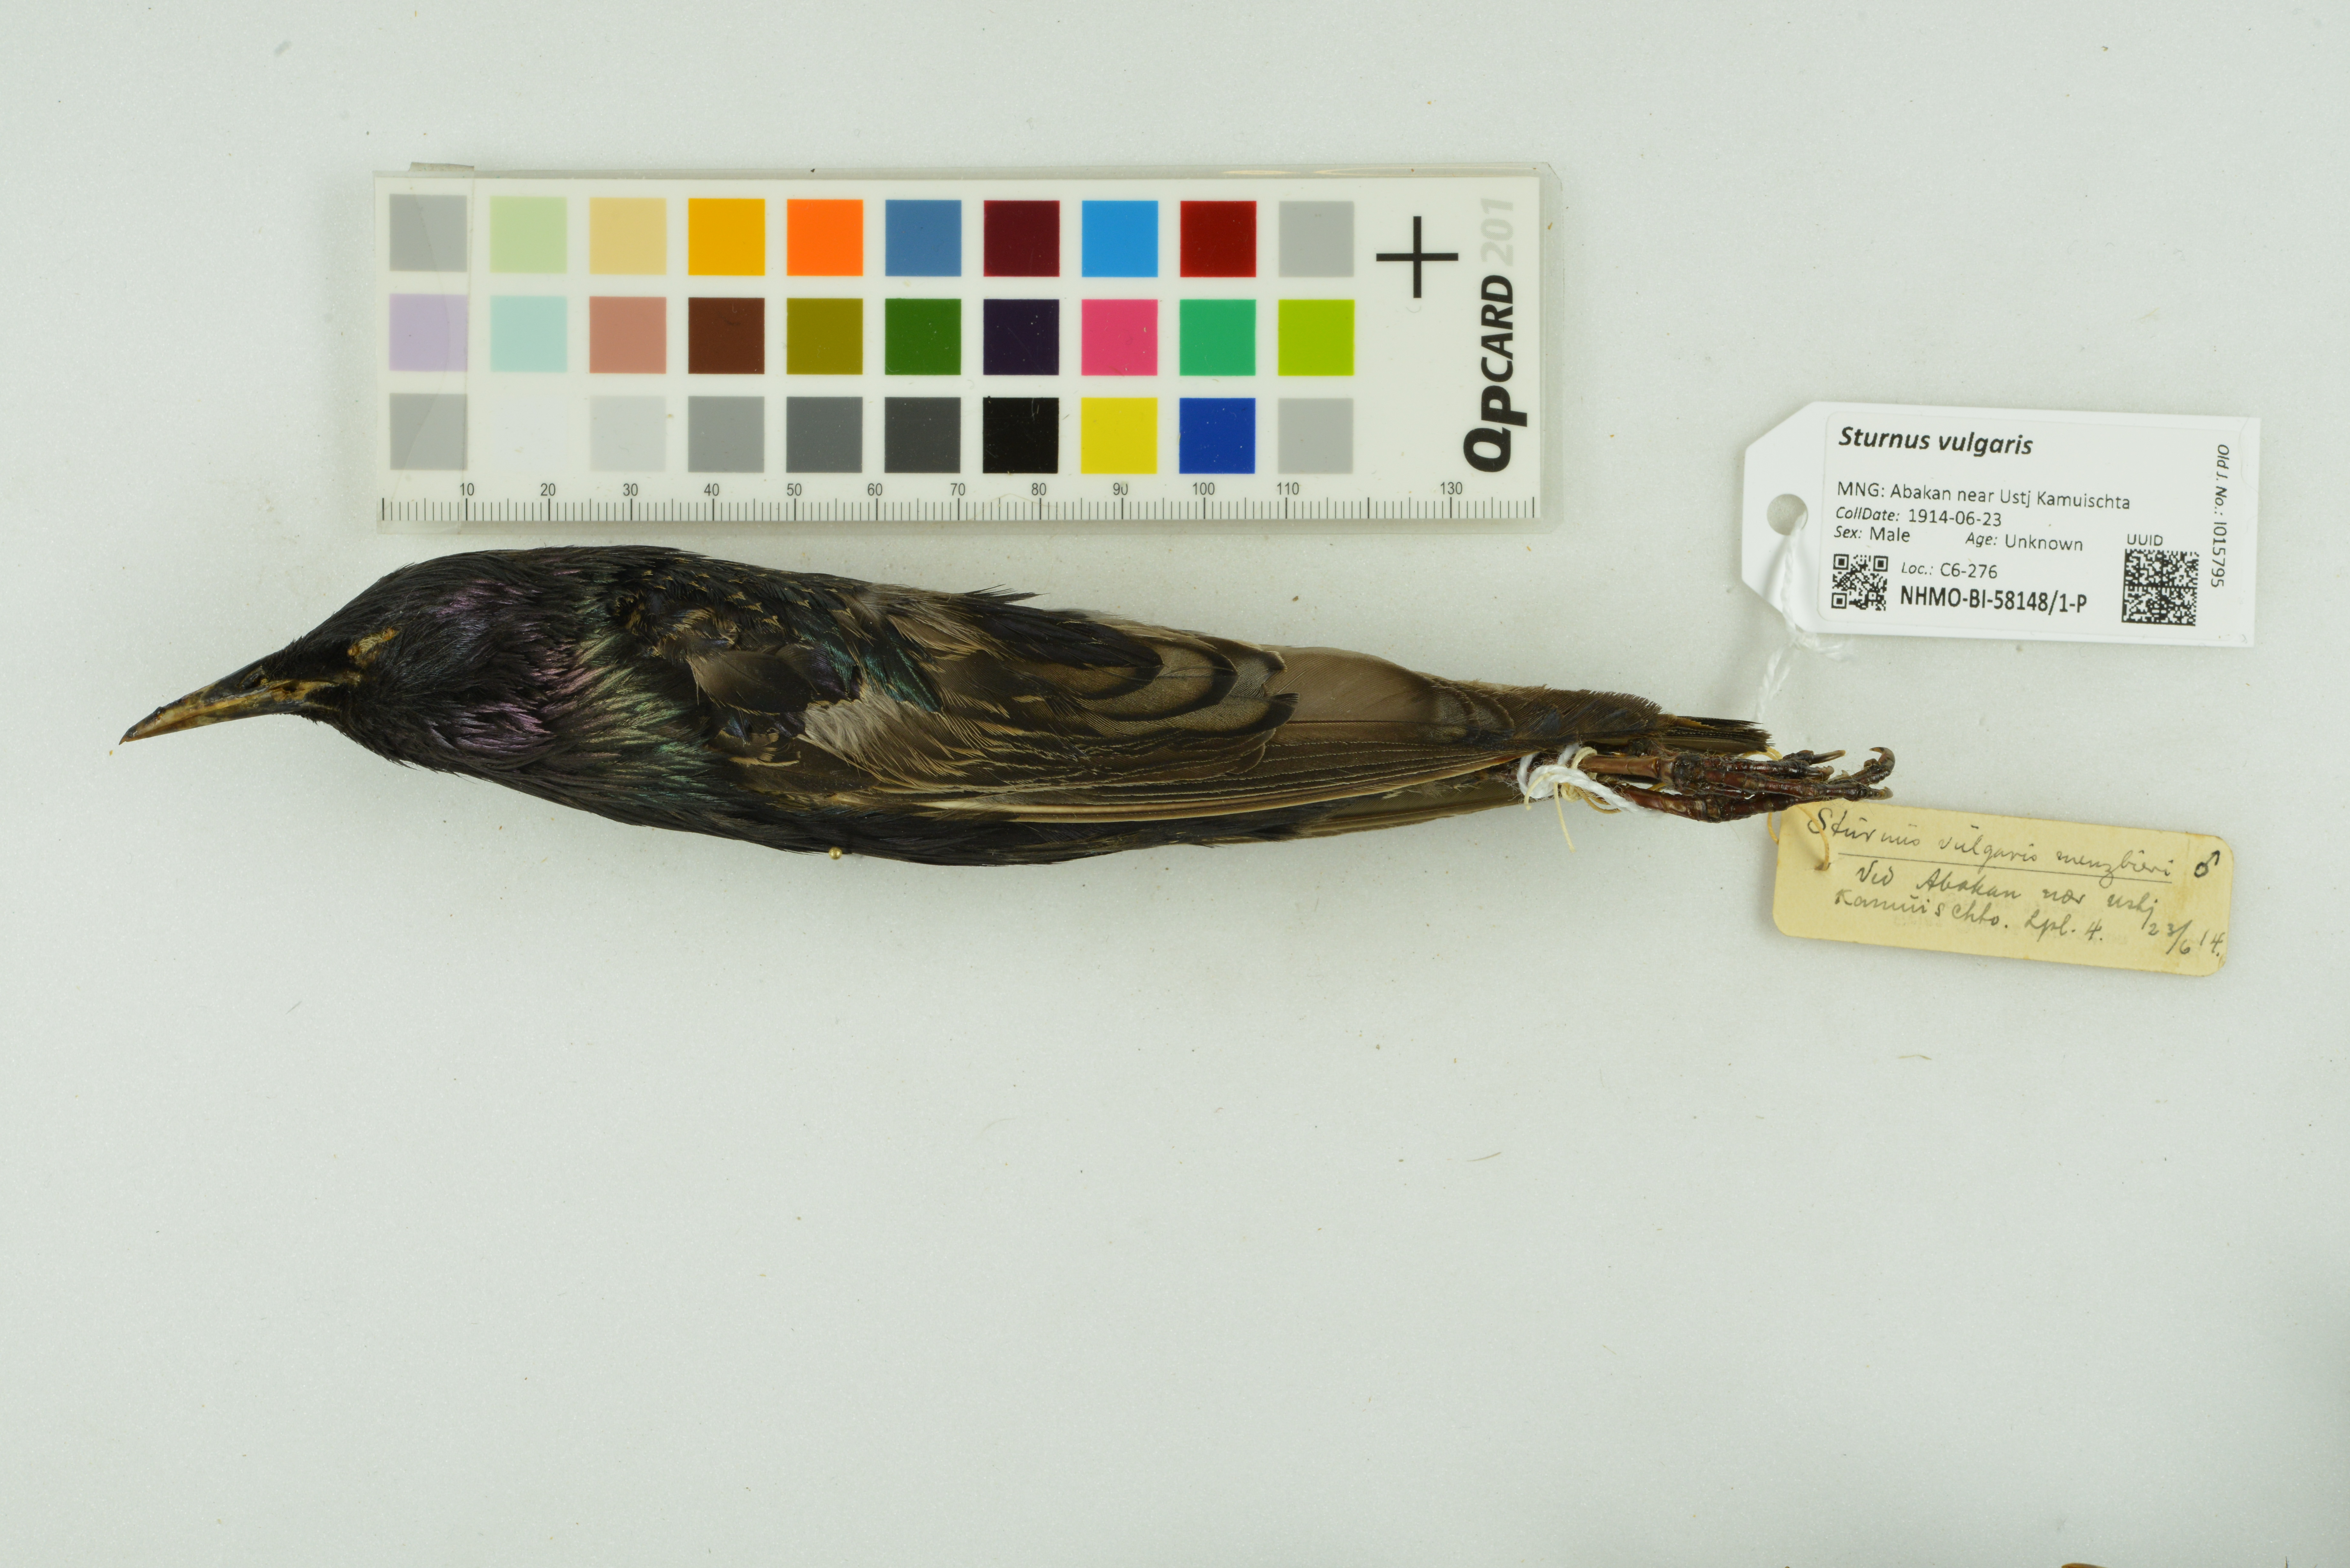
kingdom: Animalia
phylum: Chordata
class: Aves
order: Passeriformes
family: Sturnidae
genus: Sturnus
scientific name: Sturnus vulgaris
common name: Common starling
